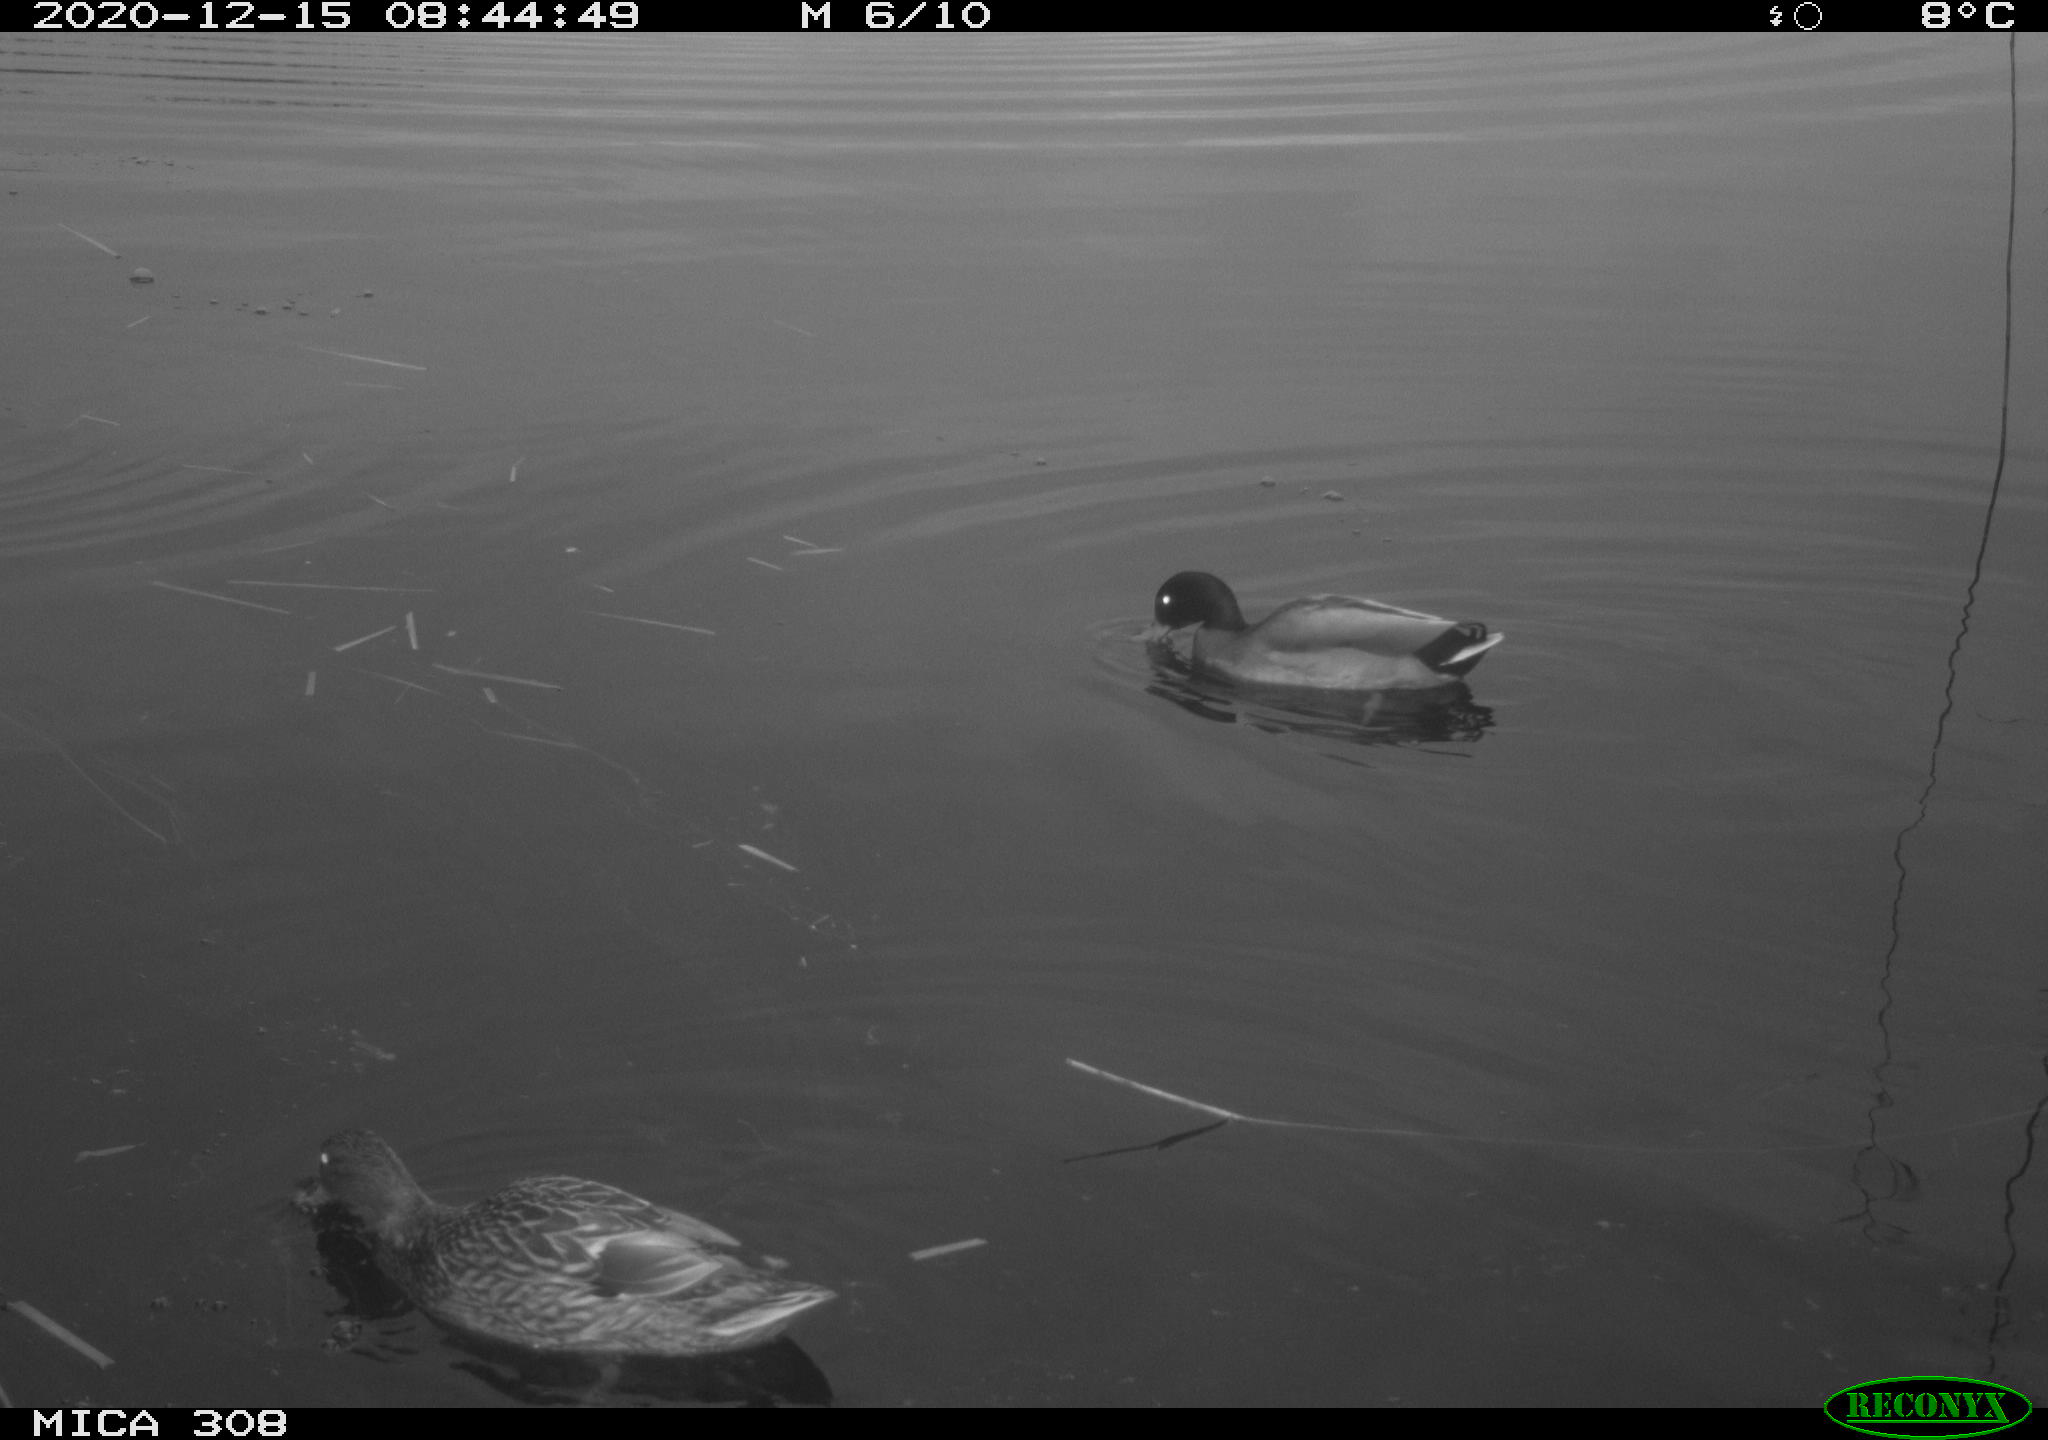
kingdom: Animalia
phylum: Chordata
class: Aves
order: Anseriformes
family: Anatidae
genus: Mareca
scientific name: Mareca strepera
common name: Gadwall
